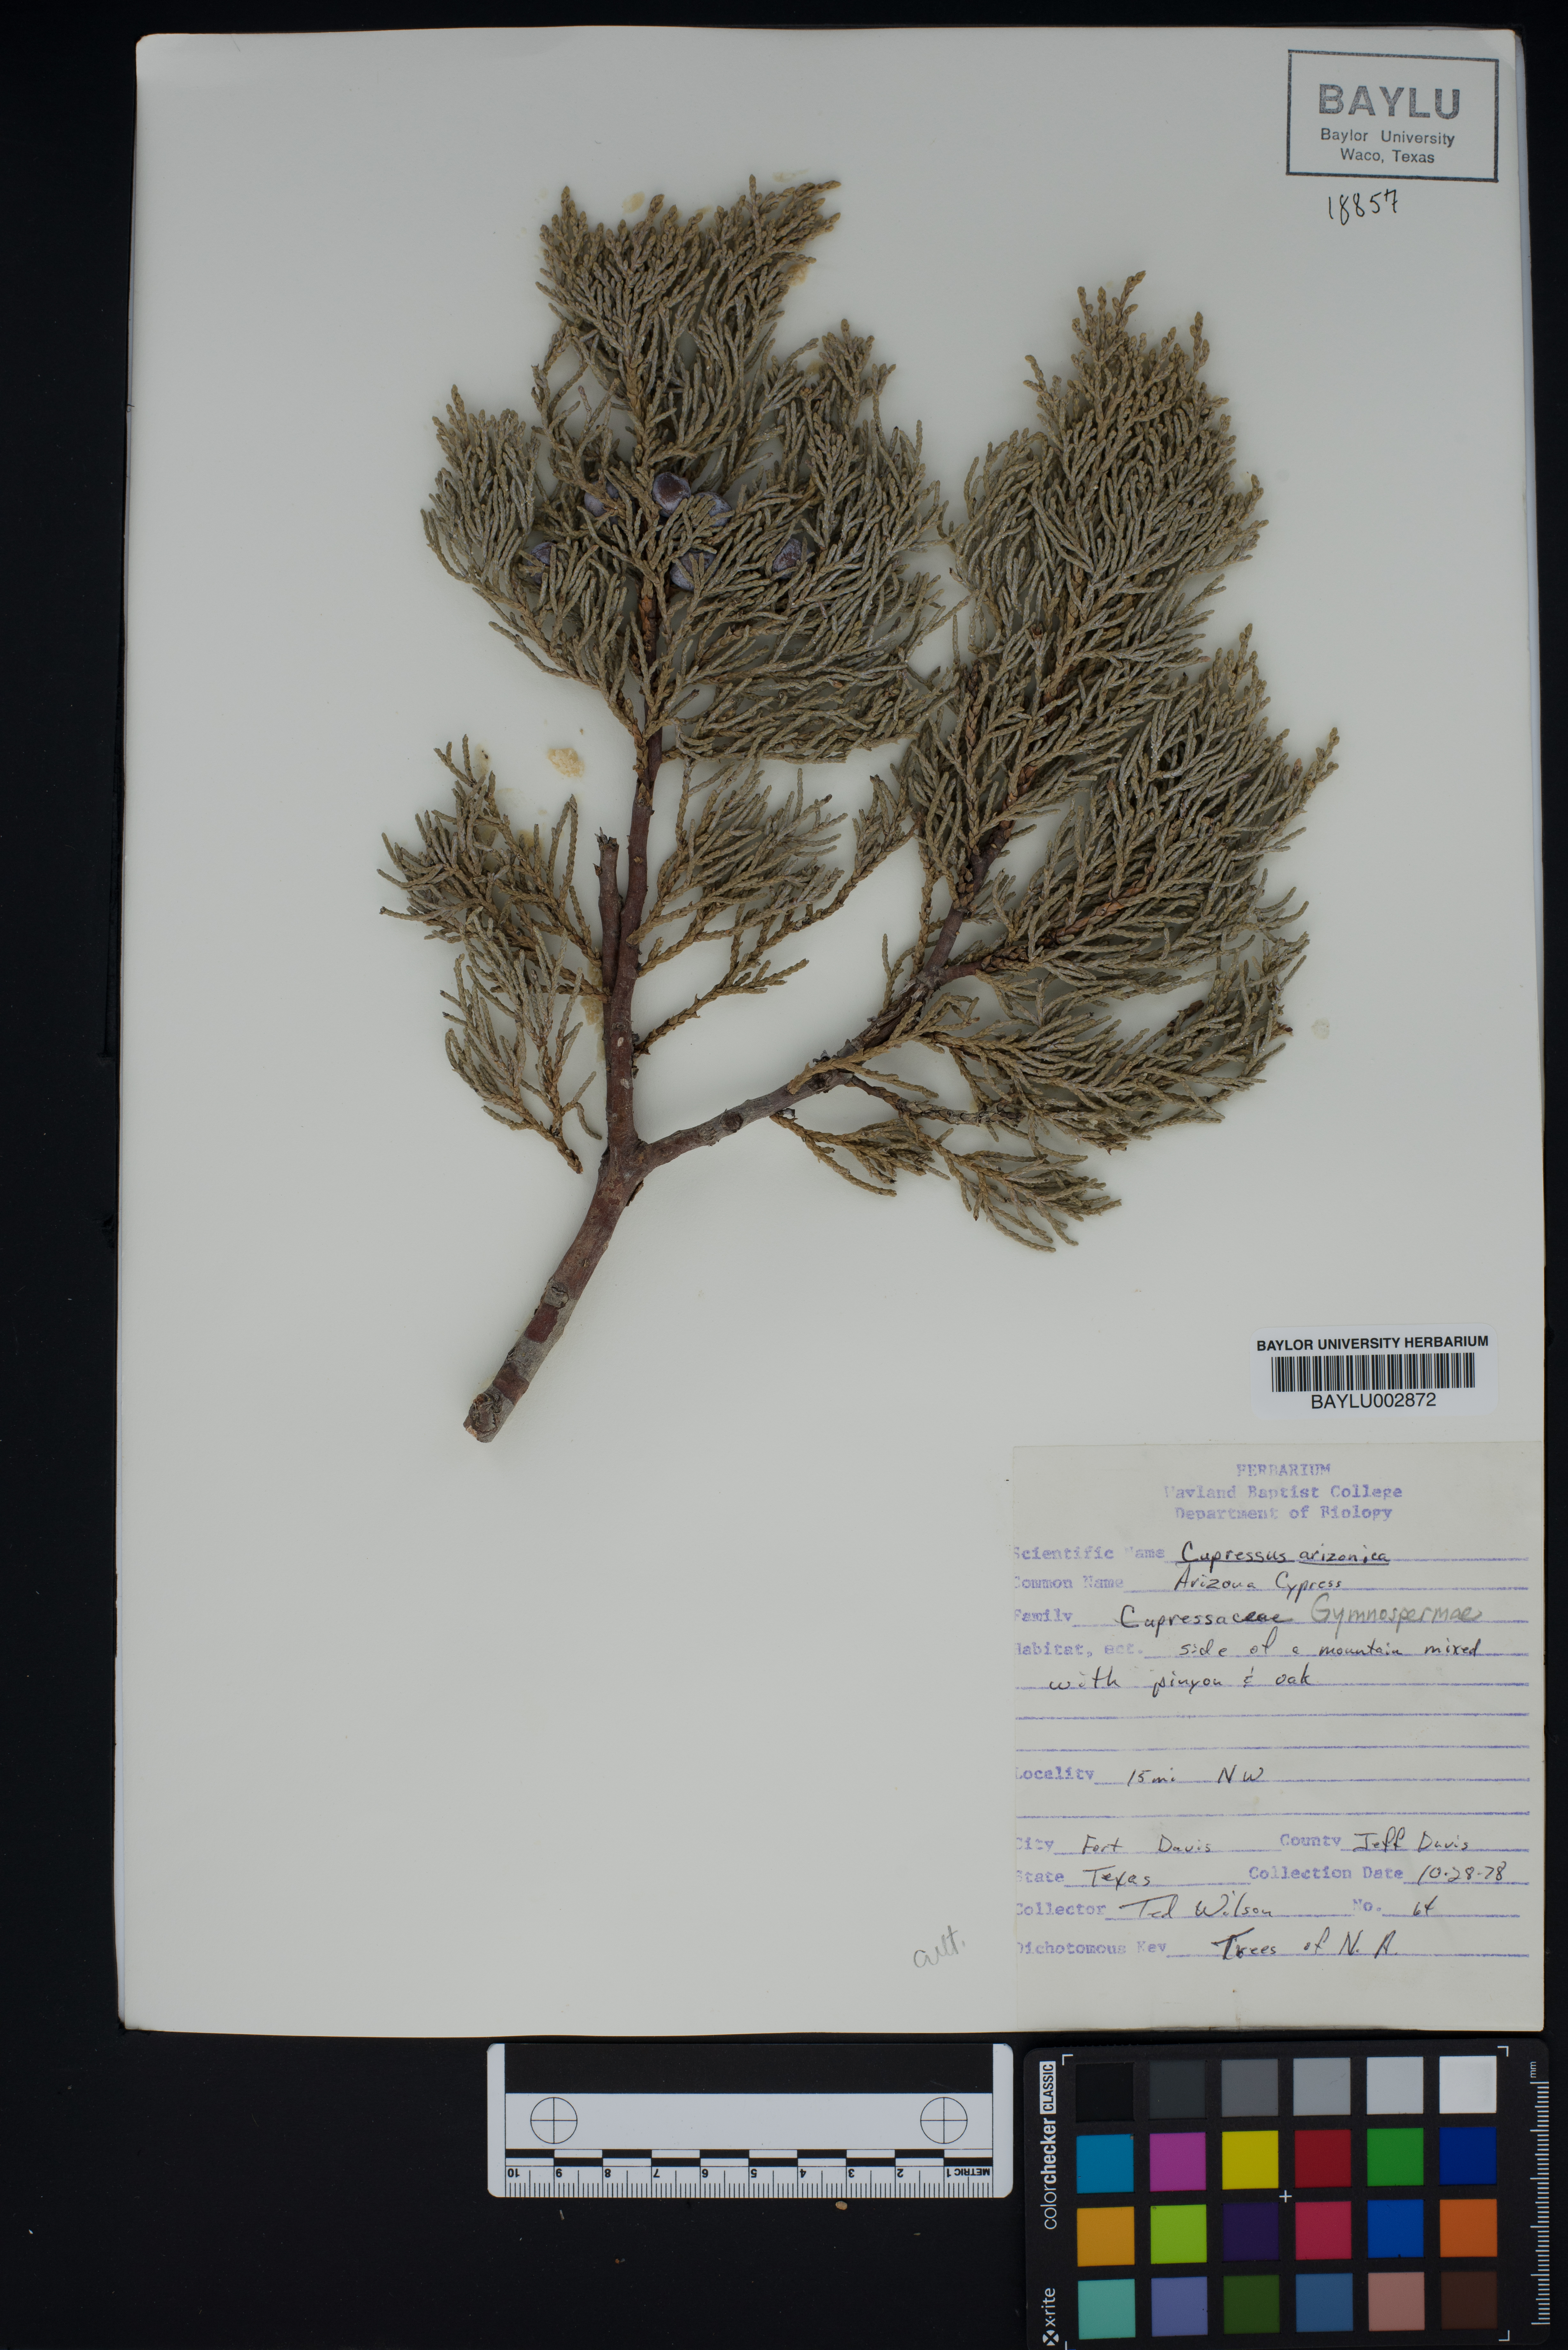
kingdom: Plantae
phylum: Tracheophyta
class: Pinopsida
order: Pinales
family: Cupressaceae
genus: Cupressus
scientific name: Cupressus arizonica
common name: Arizona cypress
